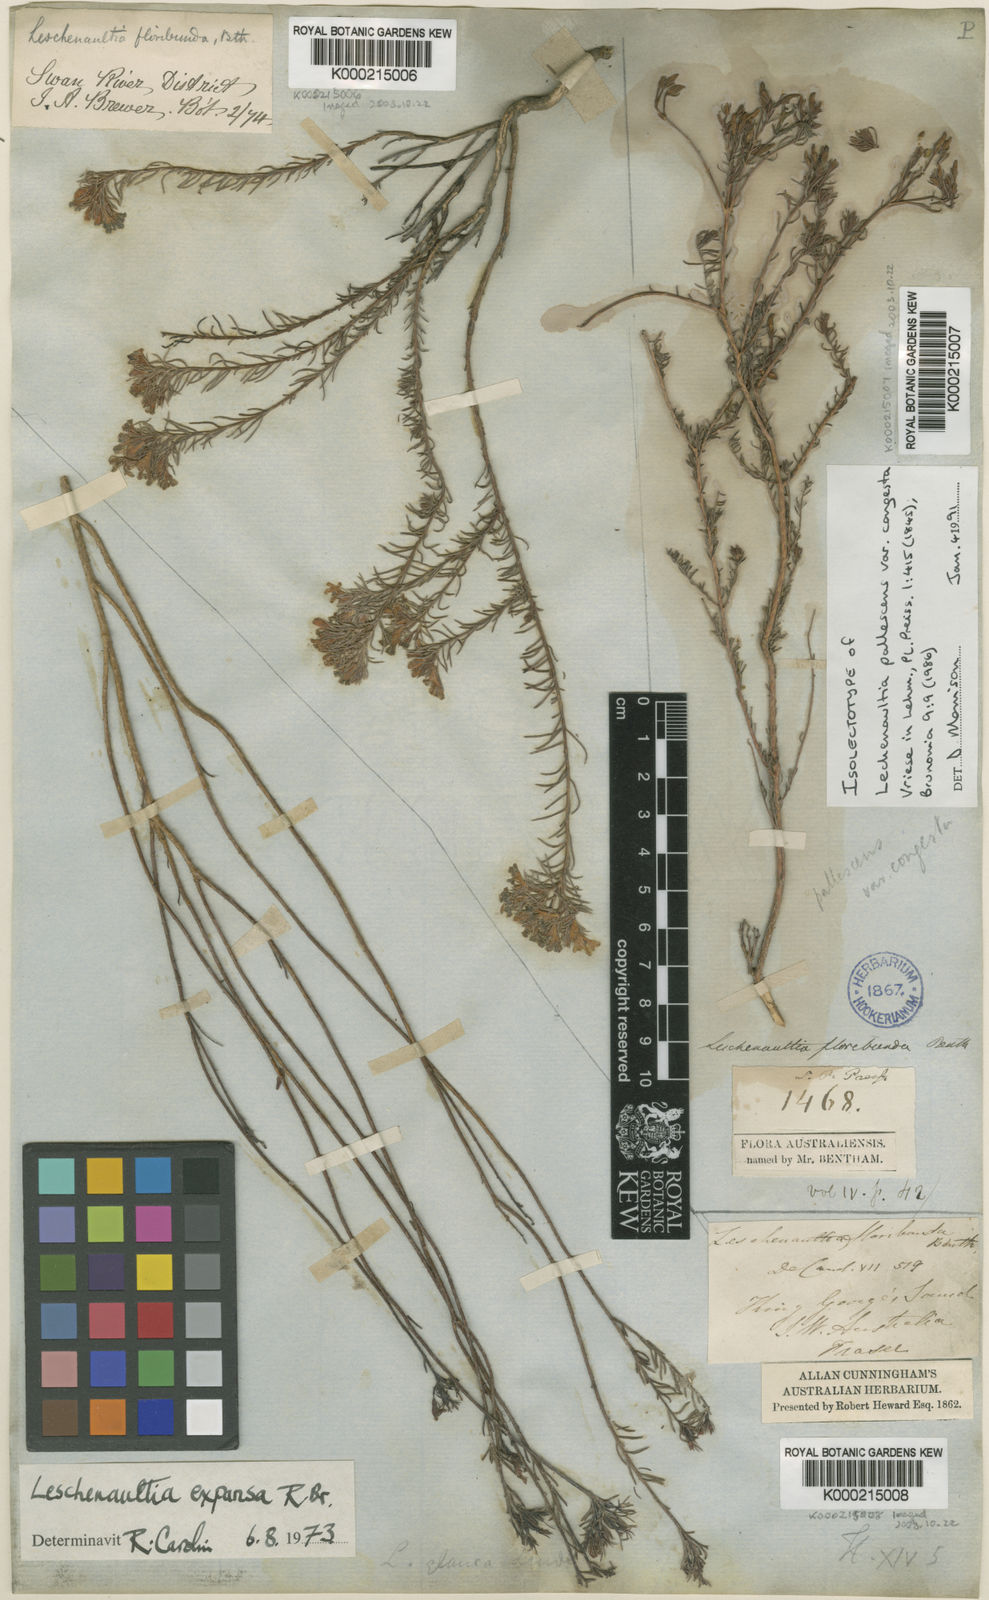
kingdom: Plantae
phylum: Tracheophyta
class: Magnoliopsida
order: Asterales
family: Goodeniaceae
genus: Leschenaultia
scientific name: Leschenaultia expansa
